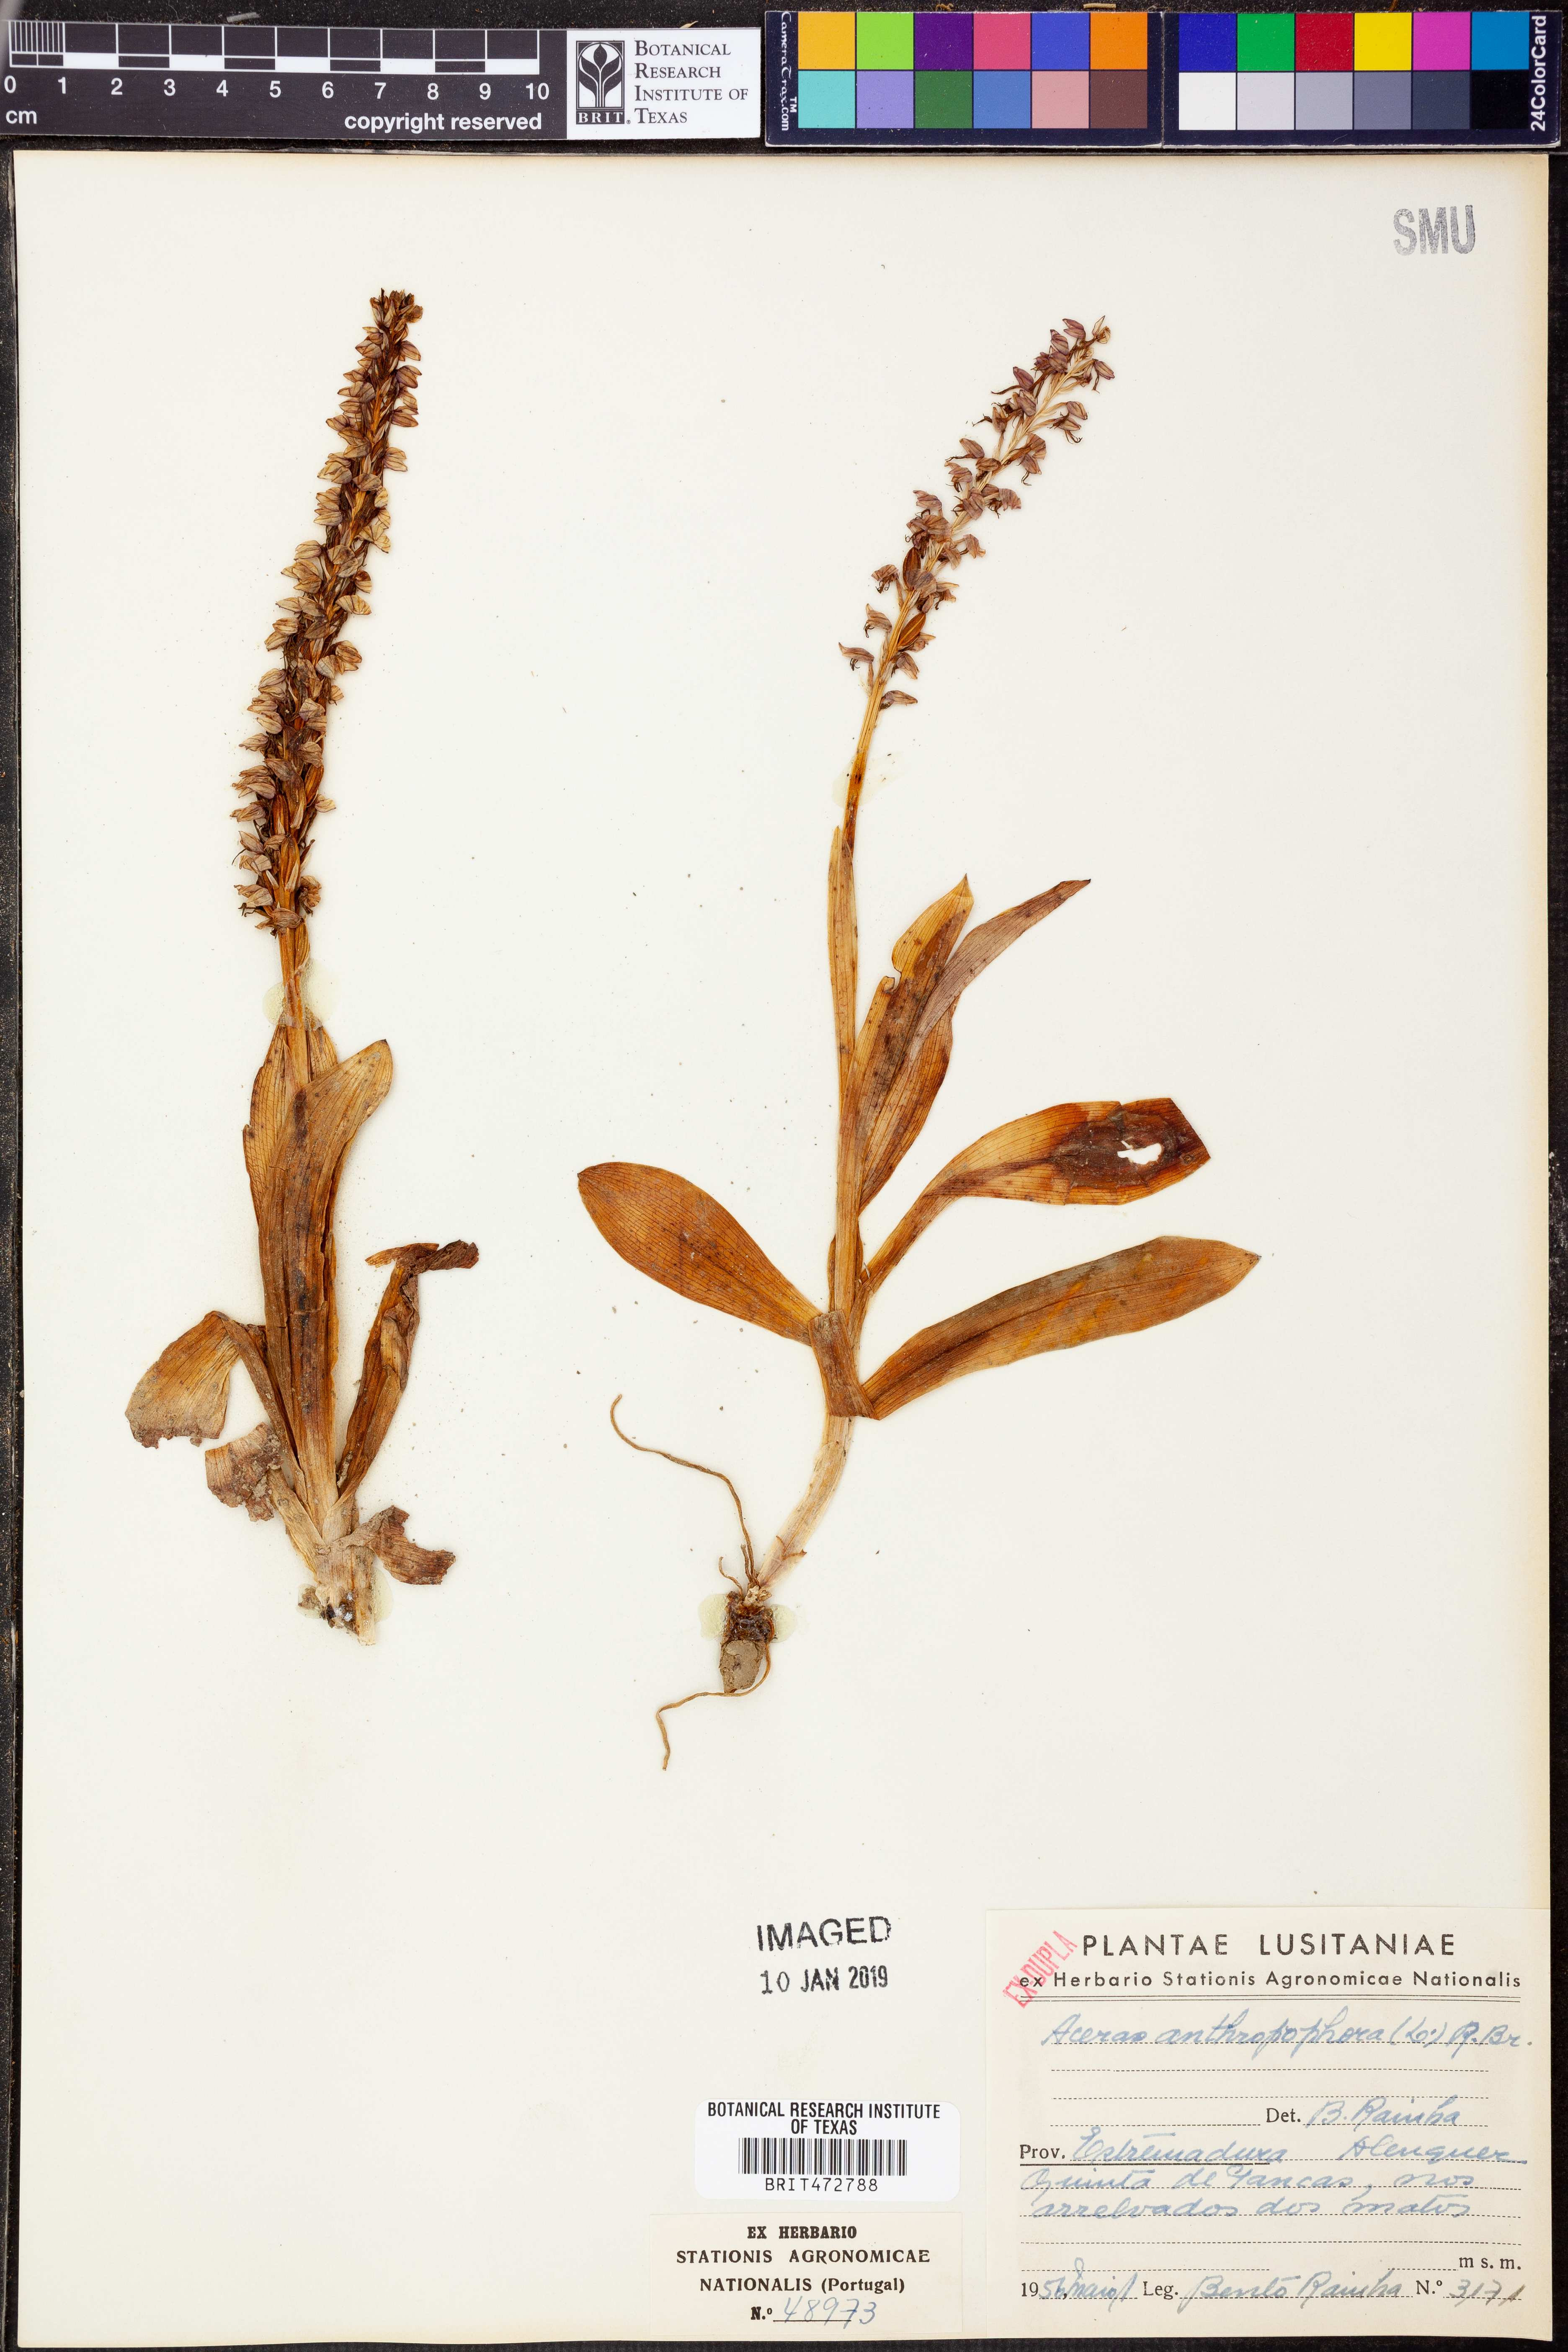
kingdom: Plantae
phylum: Tracheophyta
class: Liliopsida
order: Asparagales
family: Orchidaceae
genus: Orchis
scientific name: Orchis anthropophora
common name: Man orchid
